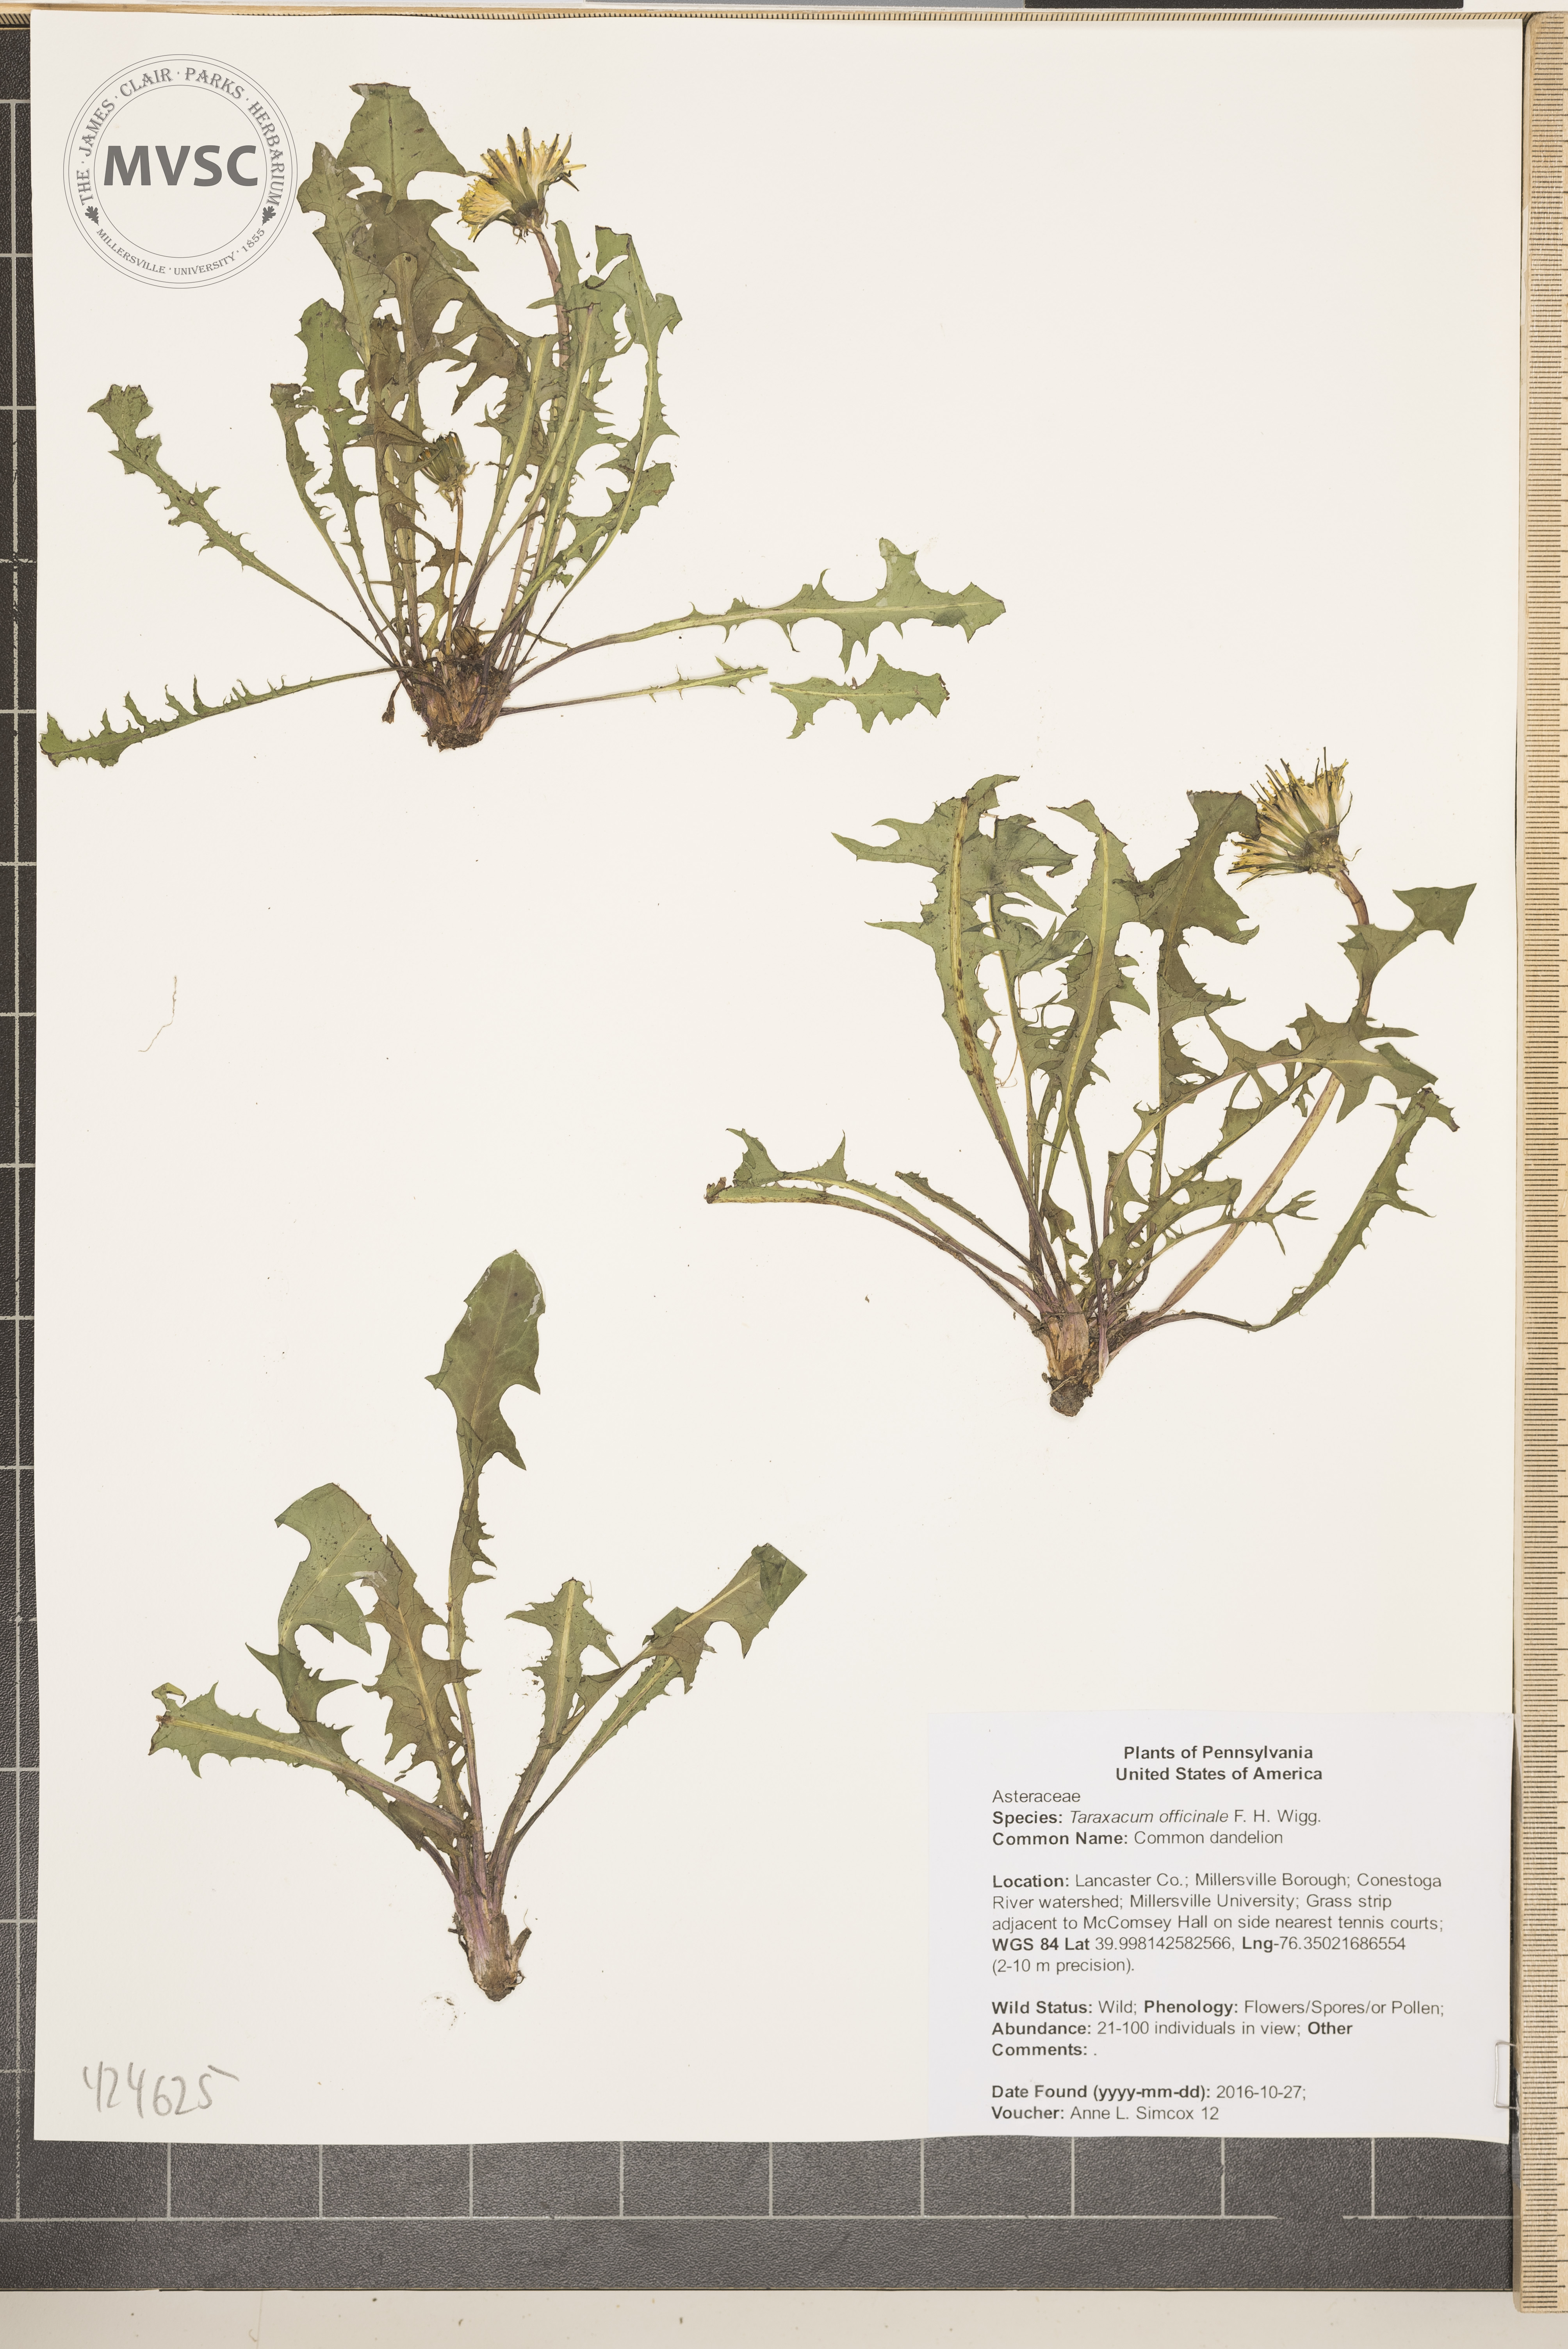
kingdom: Plantae
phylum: Tracheophyta
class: Magnoliopsida
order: Asterales
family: Asteraceae
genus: Taraxacum
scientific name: Taraxacum officinale
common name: Common dandelion
